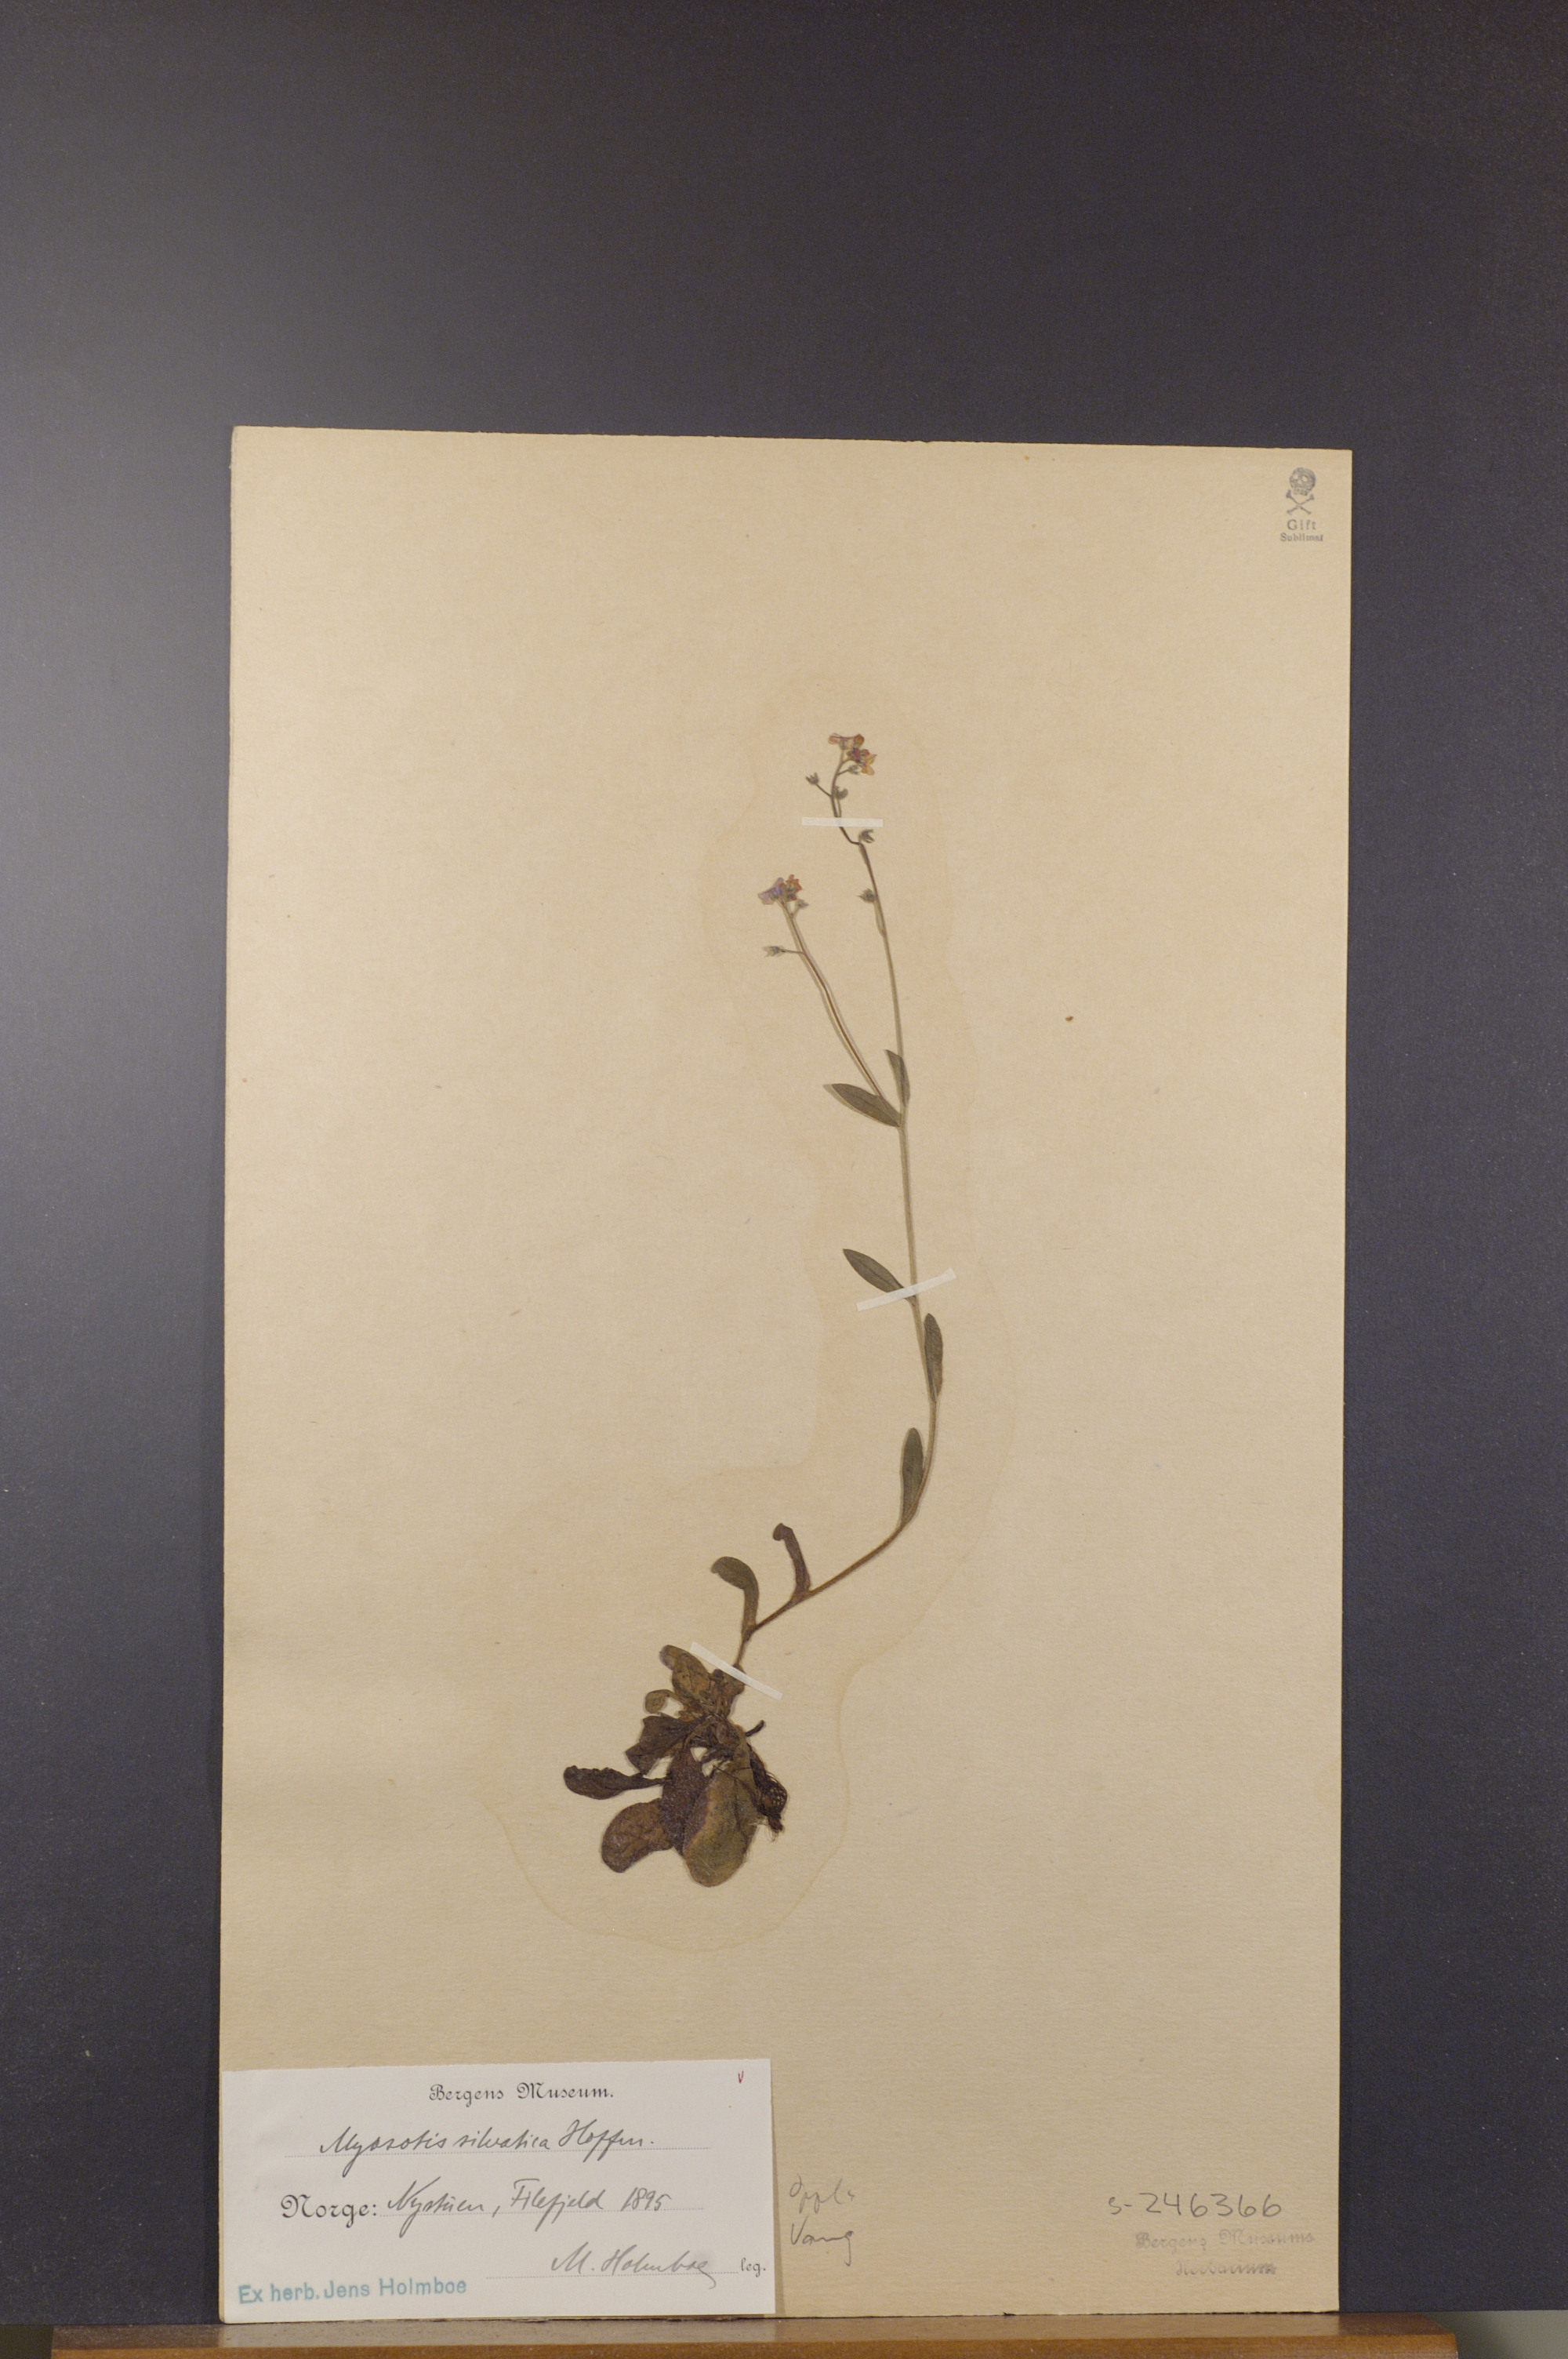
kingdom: Plantae
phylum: Tracheophyta
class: Magnoliopsida
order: Boraginales
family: Boraginaceae
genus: Myosotis
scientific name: Myosotis decumbens
